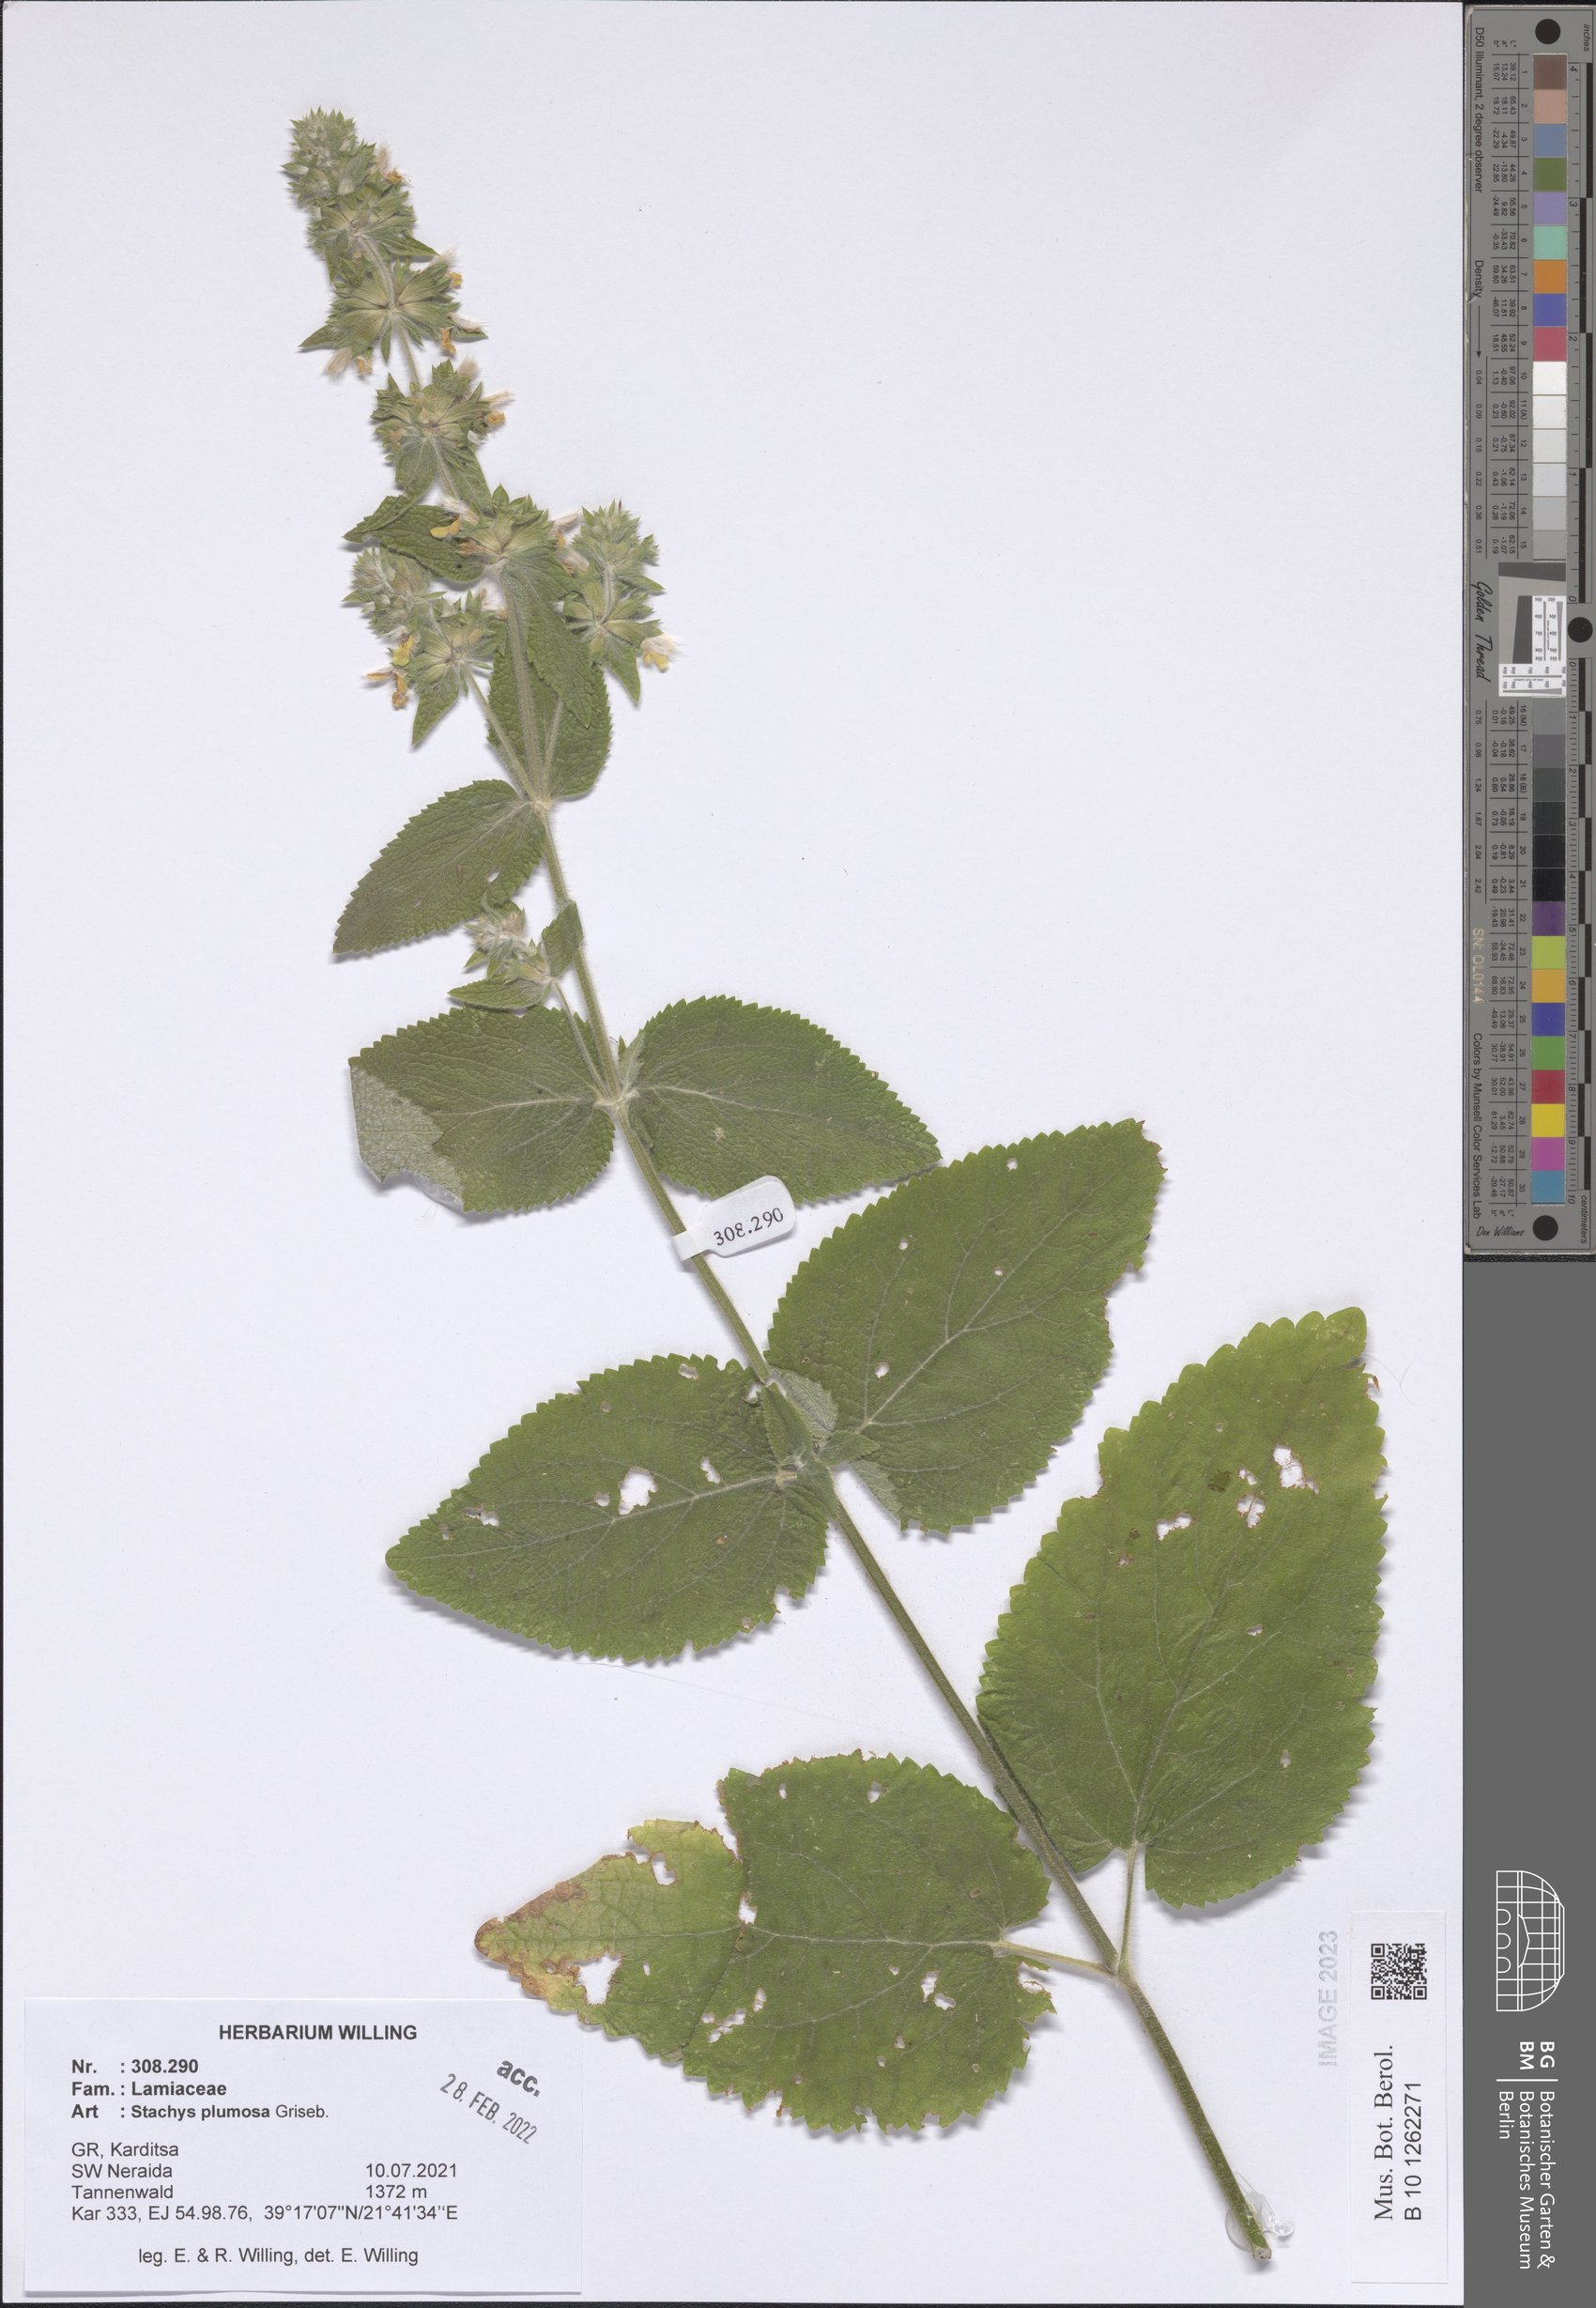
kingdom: Plantae
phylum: Tracheophyta
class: Magnoliopsida
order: Lamiales
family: Lamiaceae
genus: Stachys
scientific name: Stachys plumosa
